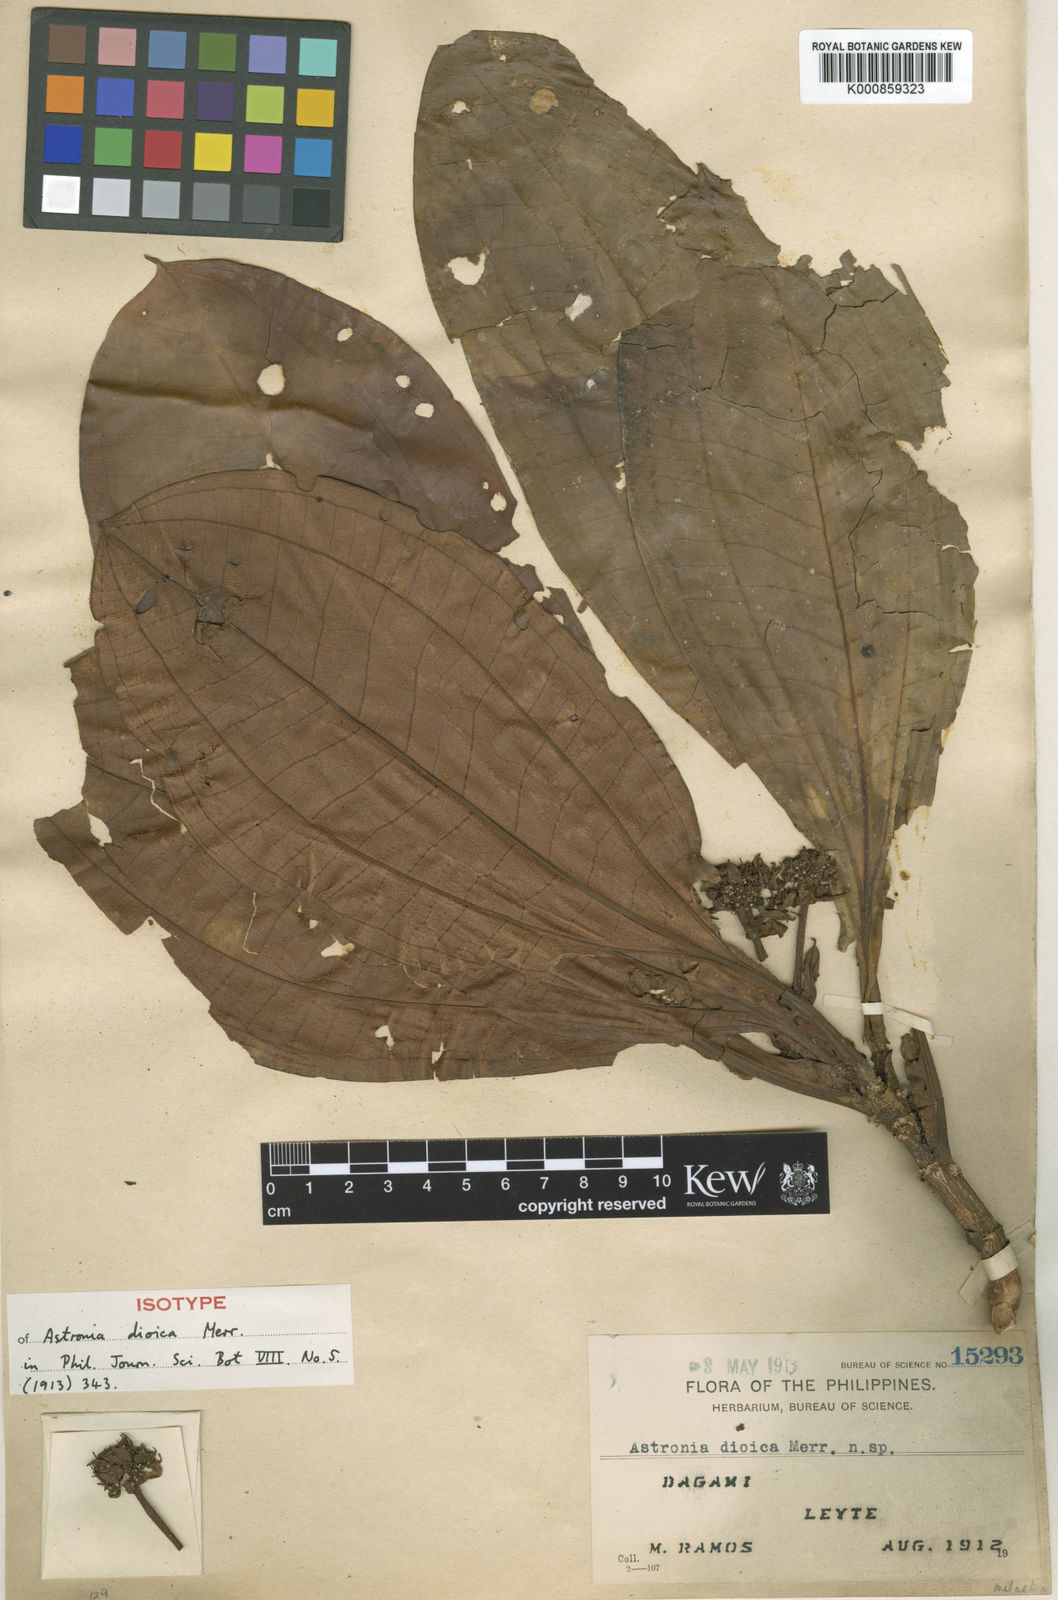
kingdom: Plantae
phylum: Tracheophyta
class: Magnoliopsida
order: Myrtales
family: Melastomataceae
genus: Astronia
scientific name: Astronia dioica
